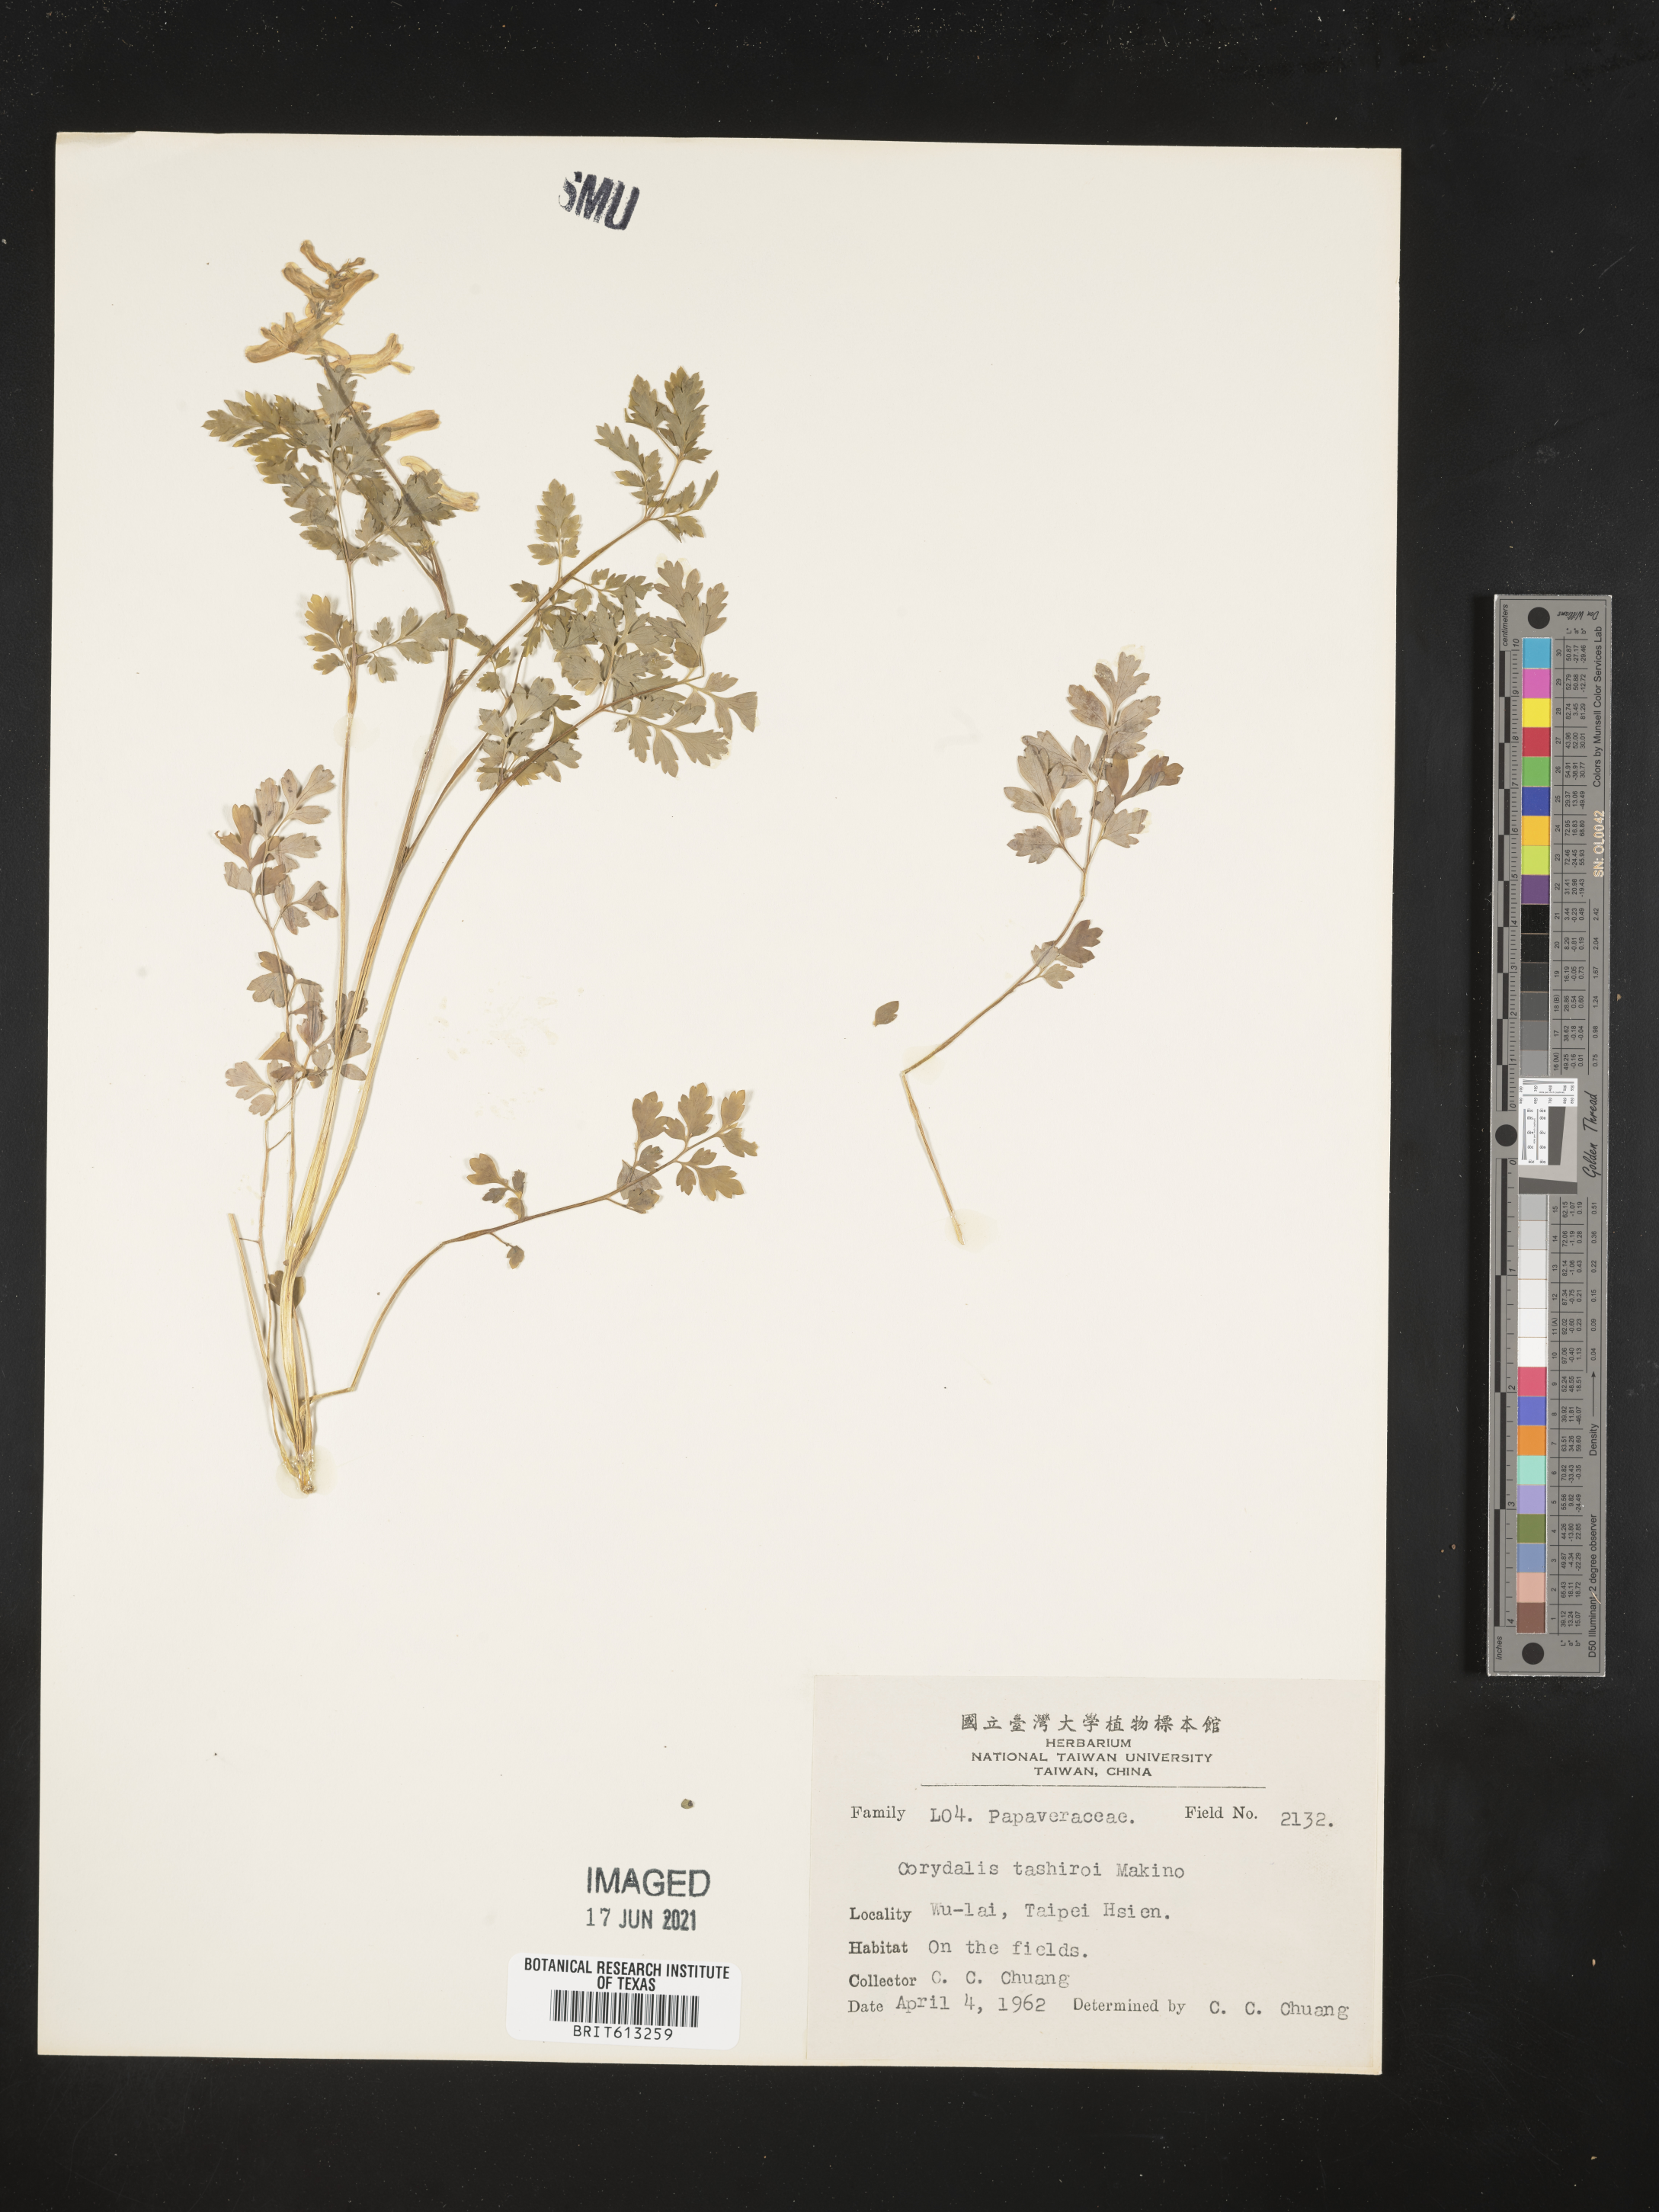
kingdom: Plantae
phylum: Tracheophyta
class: Magnoliopsida
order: Ranunculales
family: Papaveraceae
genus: Corydalis
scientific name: Corydalis balansae
